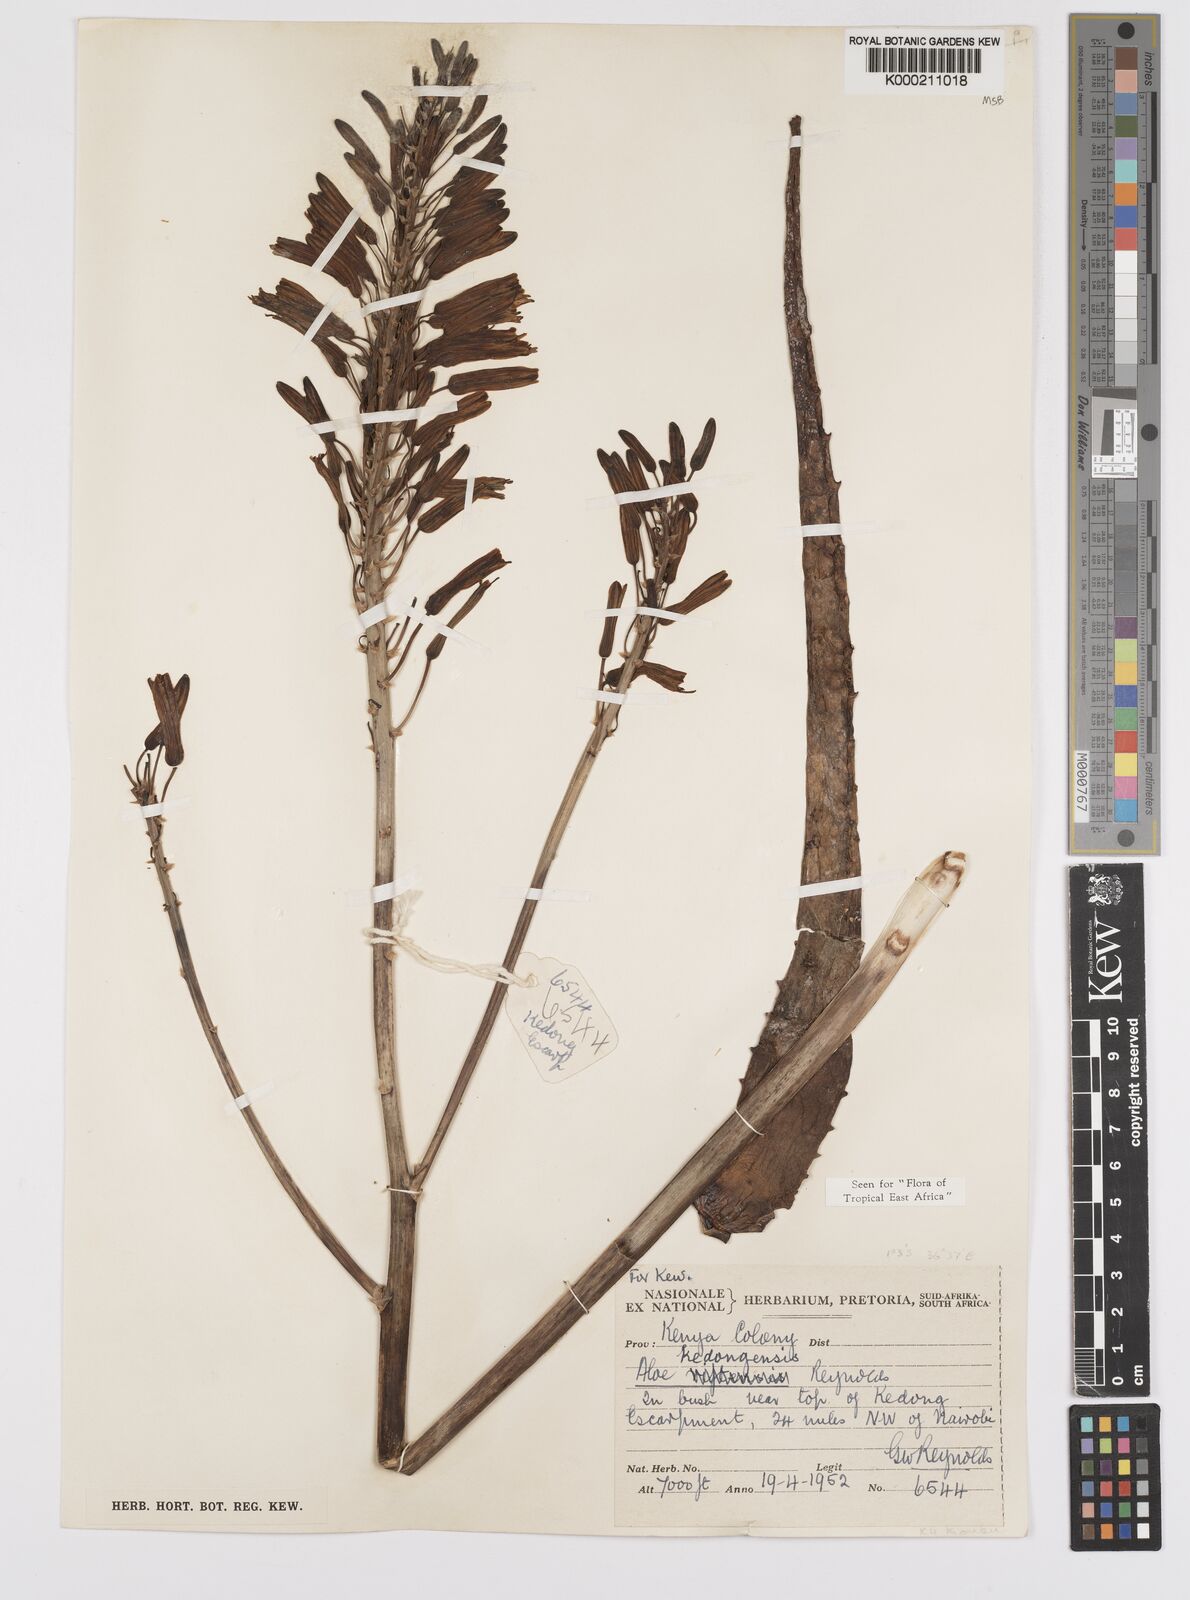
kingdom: Plantae
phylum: Tracheophyta
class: Liliopsida
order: Asparagales
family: Asphodelaceae
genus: Aloe
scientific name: Aloe kedongensis
